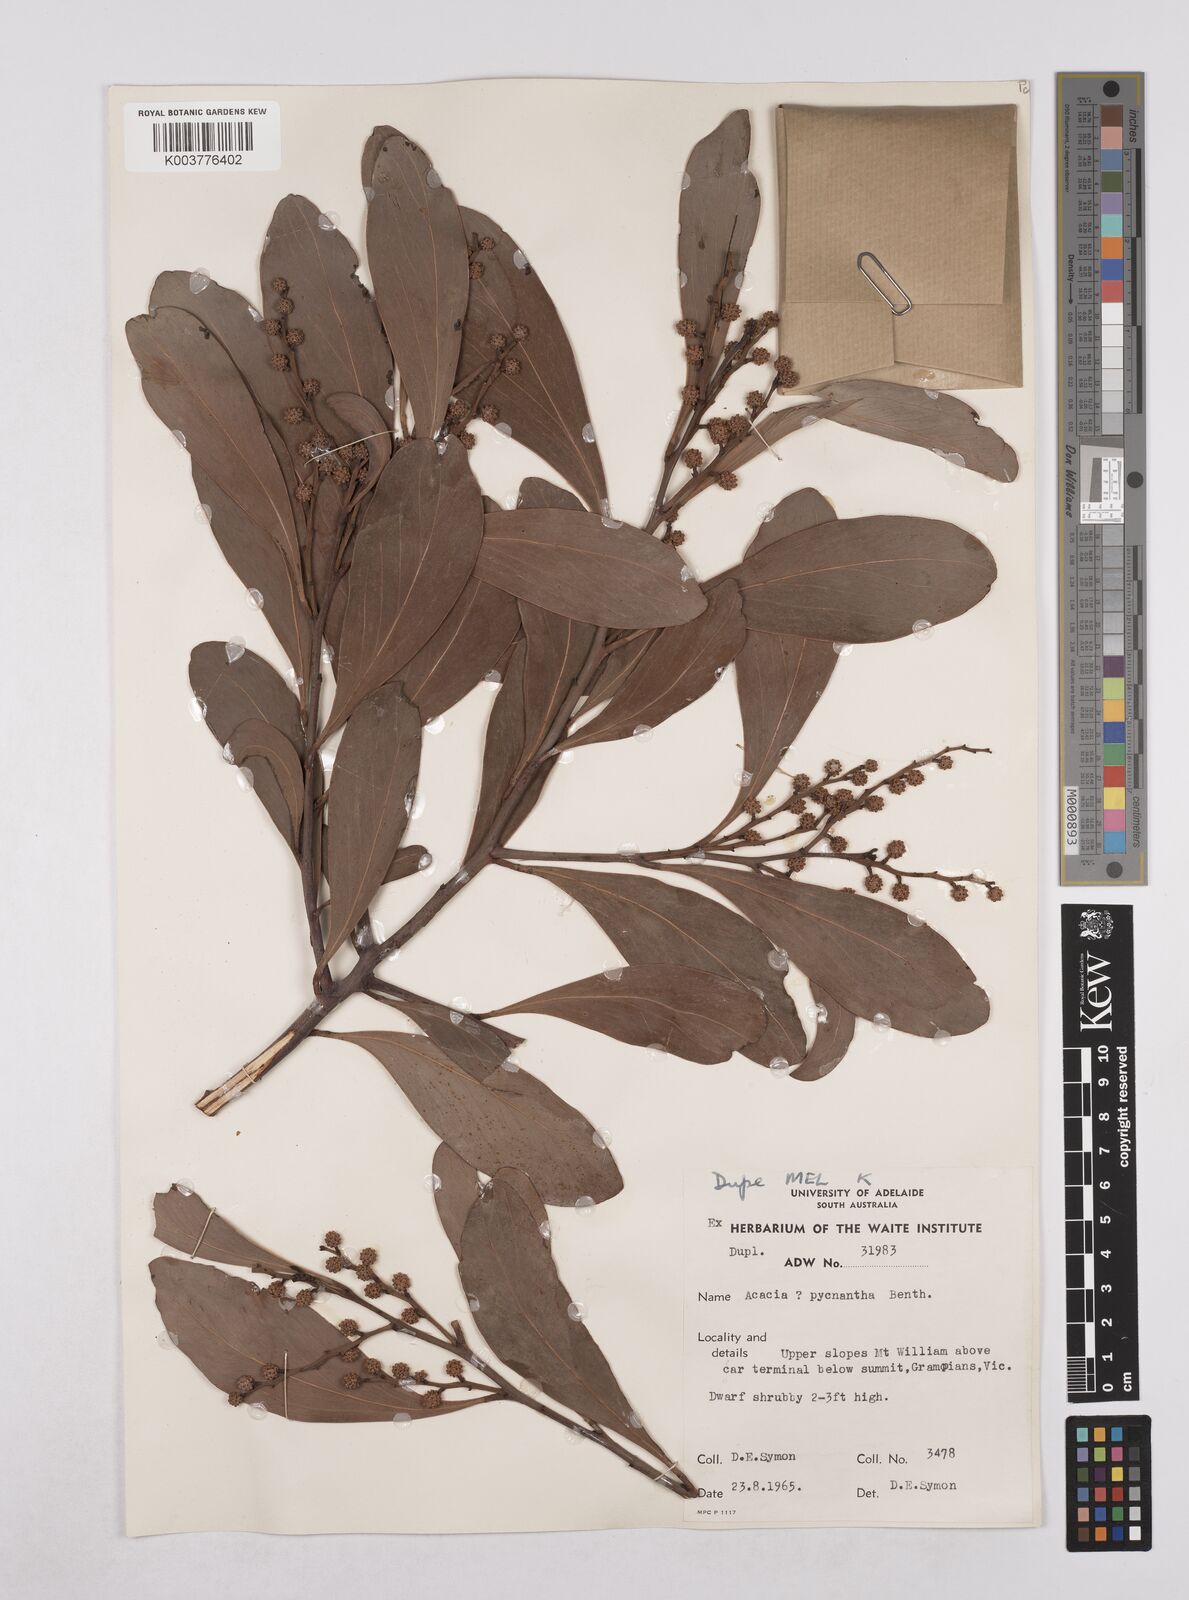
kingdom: Plantae
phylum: Tracheophyta
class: Magnoliopsida
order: Fabales
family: Fabaceae
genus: Acacia
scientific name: Acacia pycnantha
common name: Golden wattle
